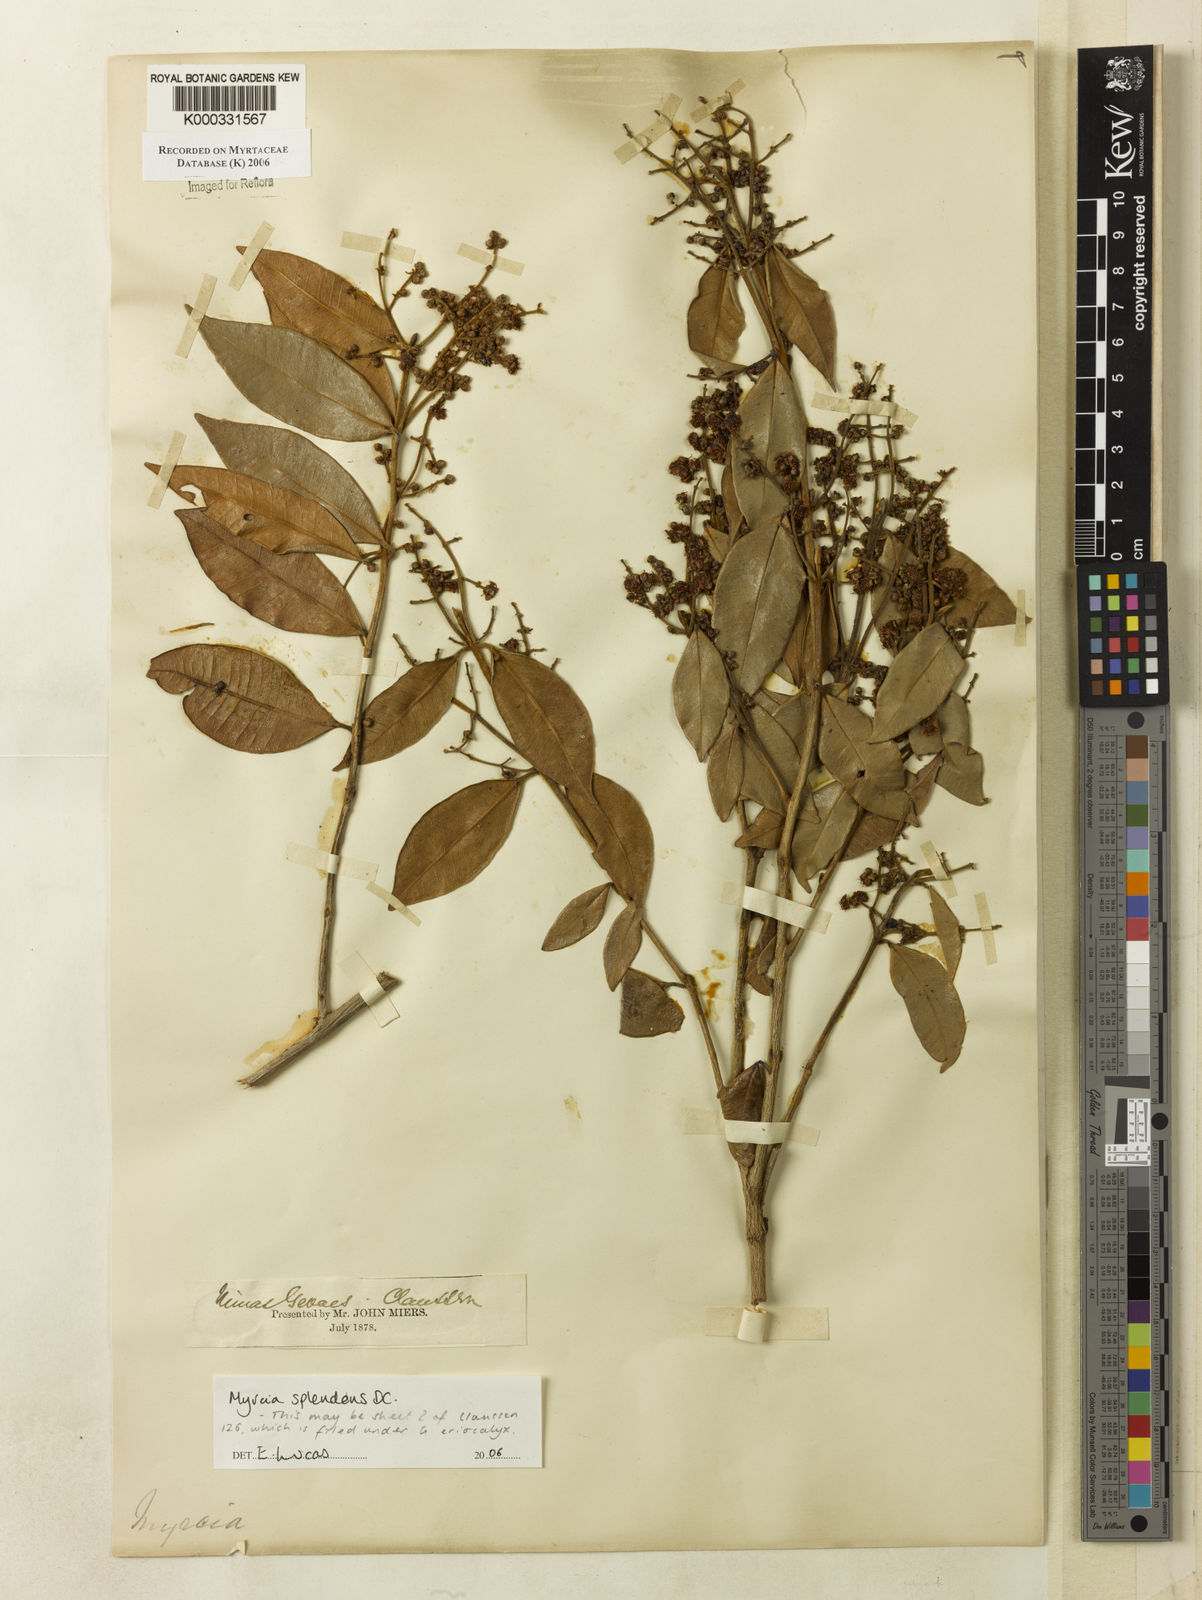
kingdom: Plantae
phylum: Tracheophyta
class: Magnoliopsida
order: Myrtales
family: Myrtaceae
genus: Myrcia
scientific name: Myrcia splendens
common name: Surinam cherry
